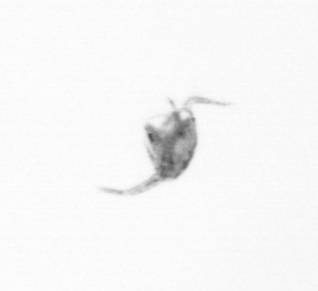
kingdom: Animalia
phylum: Arthropoda
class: Copepoda
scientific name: Copepoda
